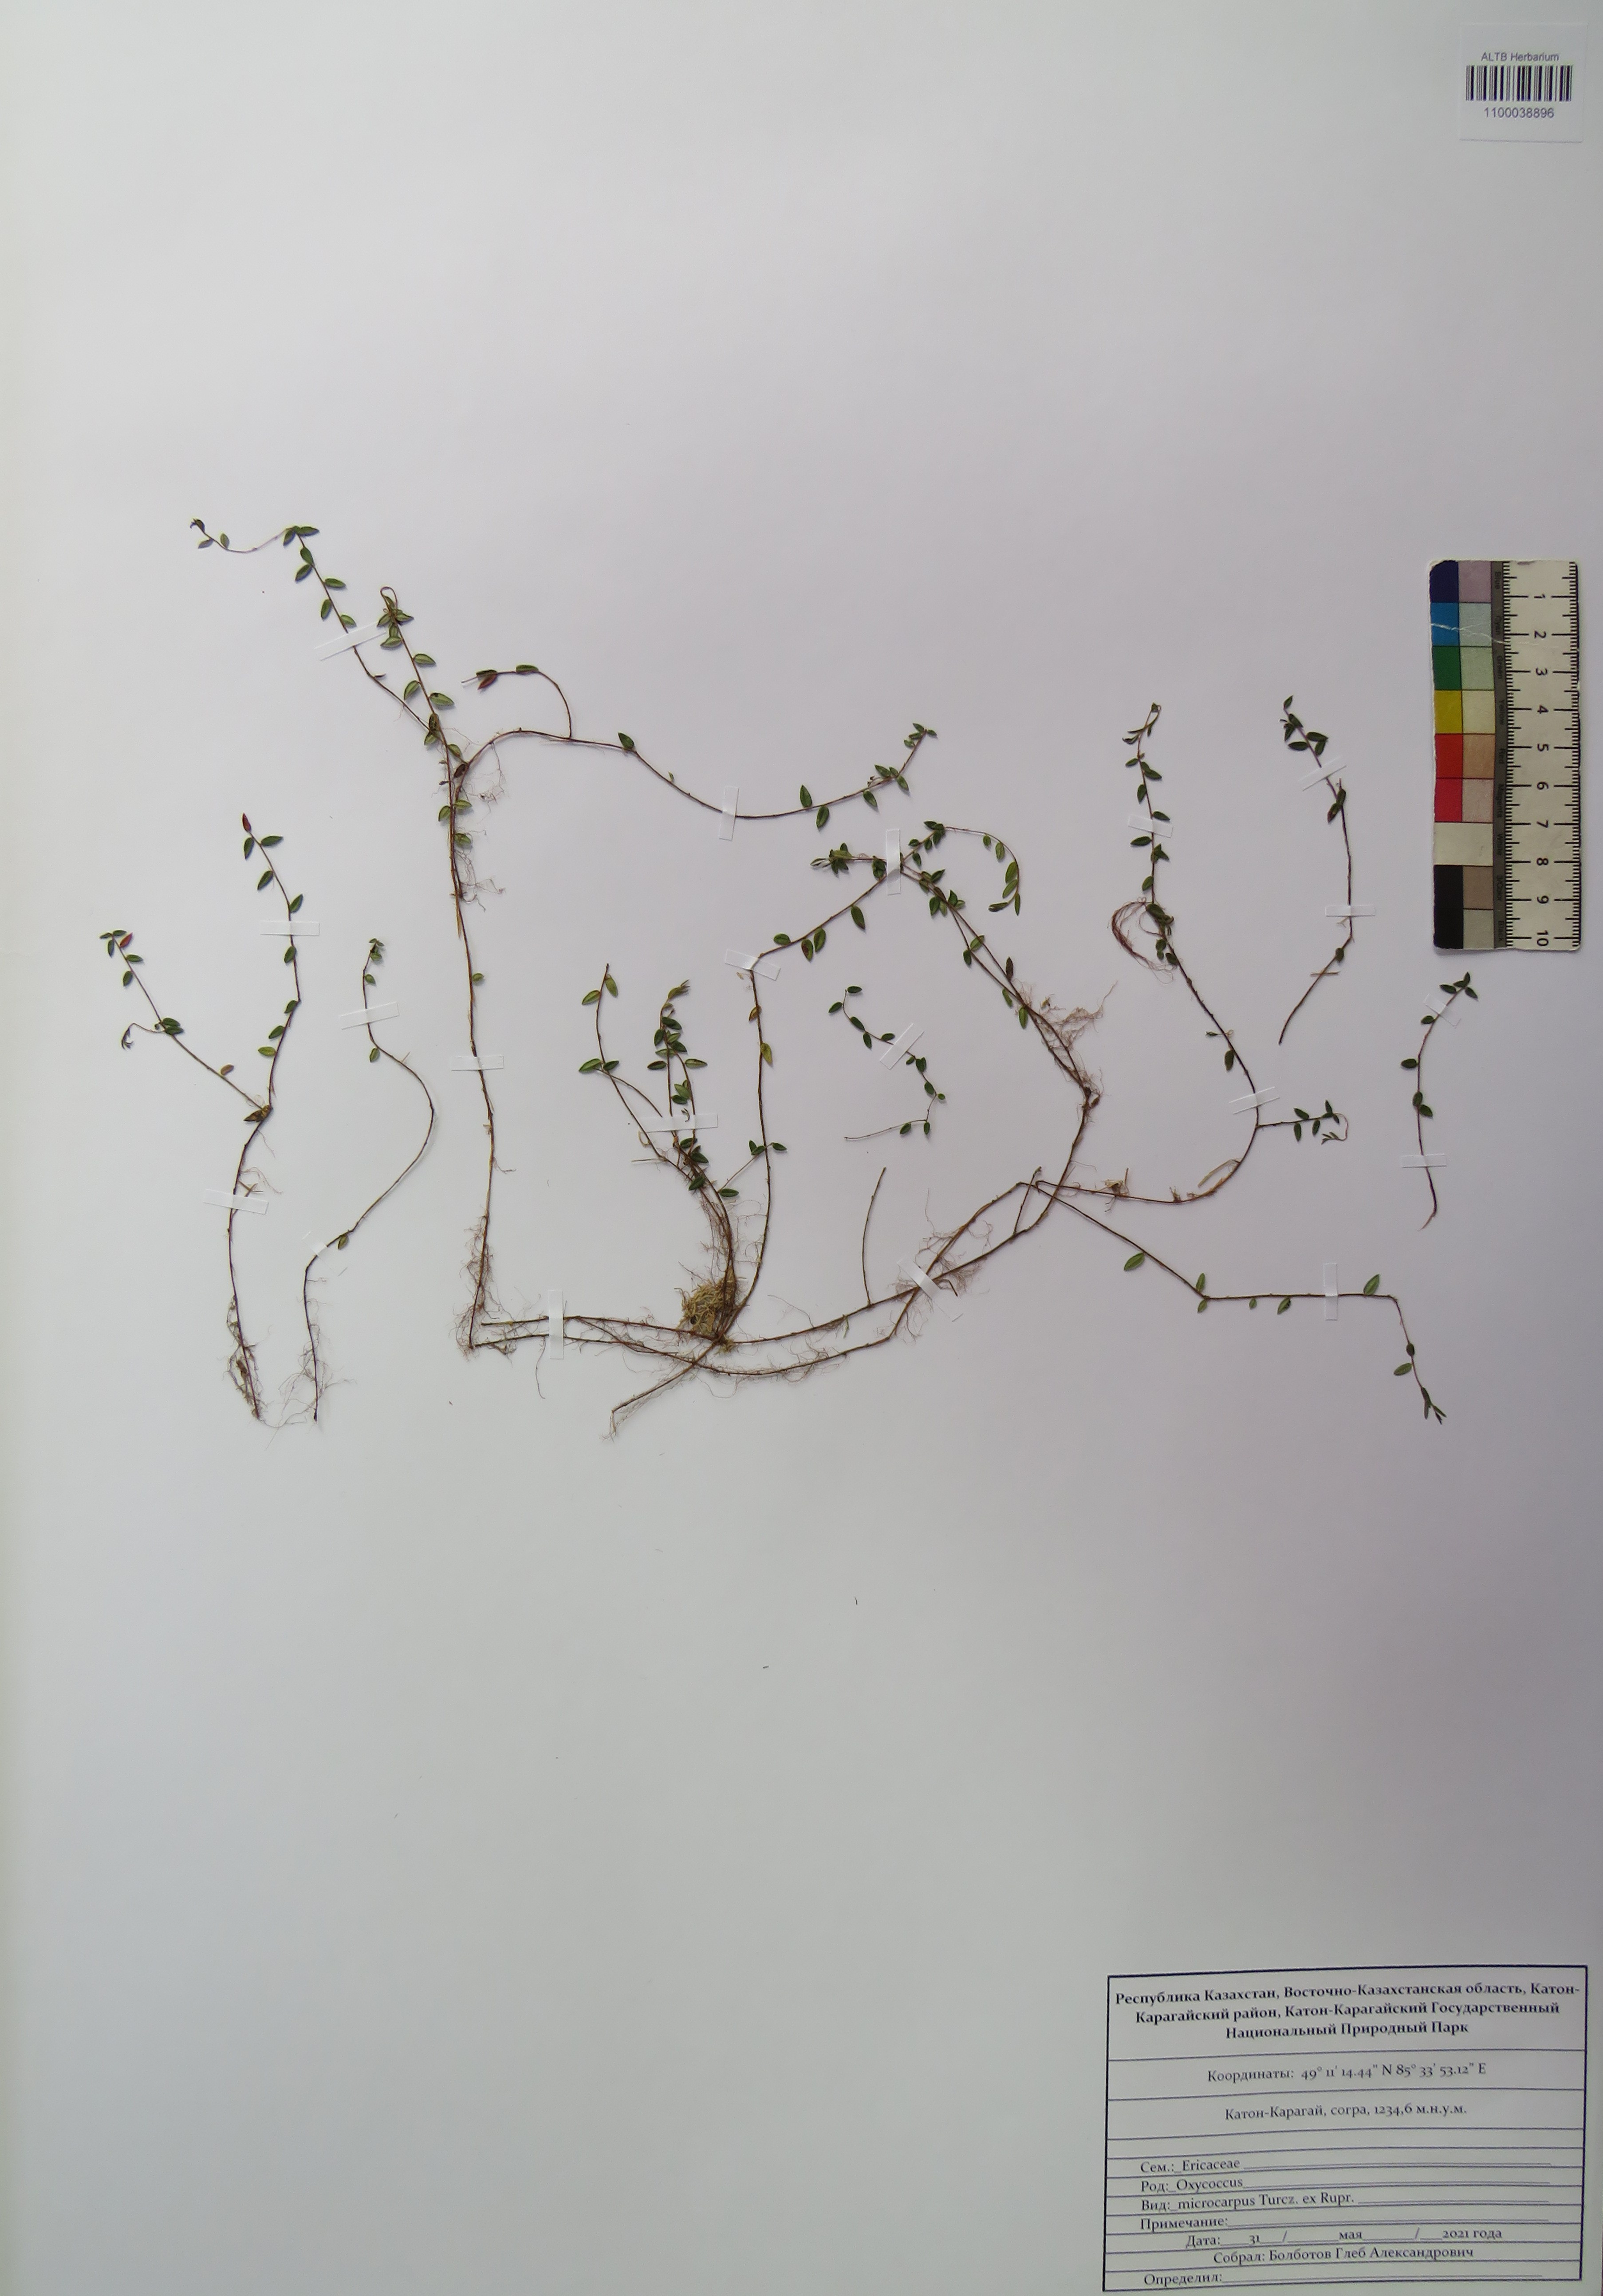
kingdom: Plantae
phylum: Tracheophyta
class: Magnoliopsida
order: Ericales
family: Ericaceae
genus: Vaccinium
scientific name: Vaccinium microcarpum
